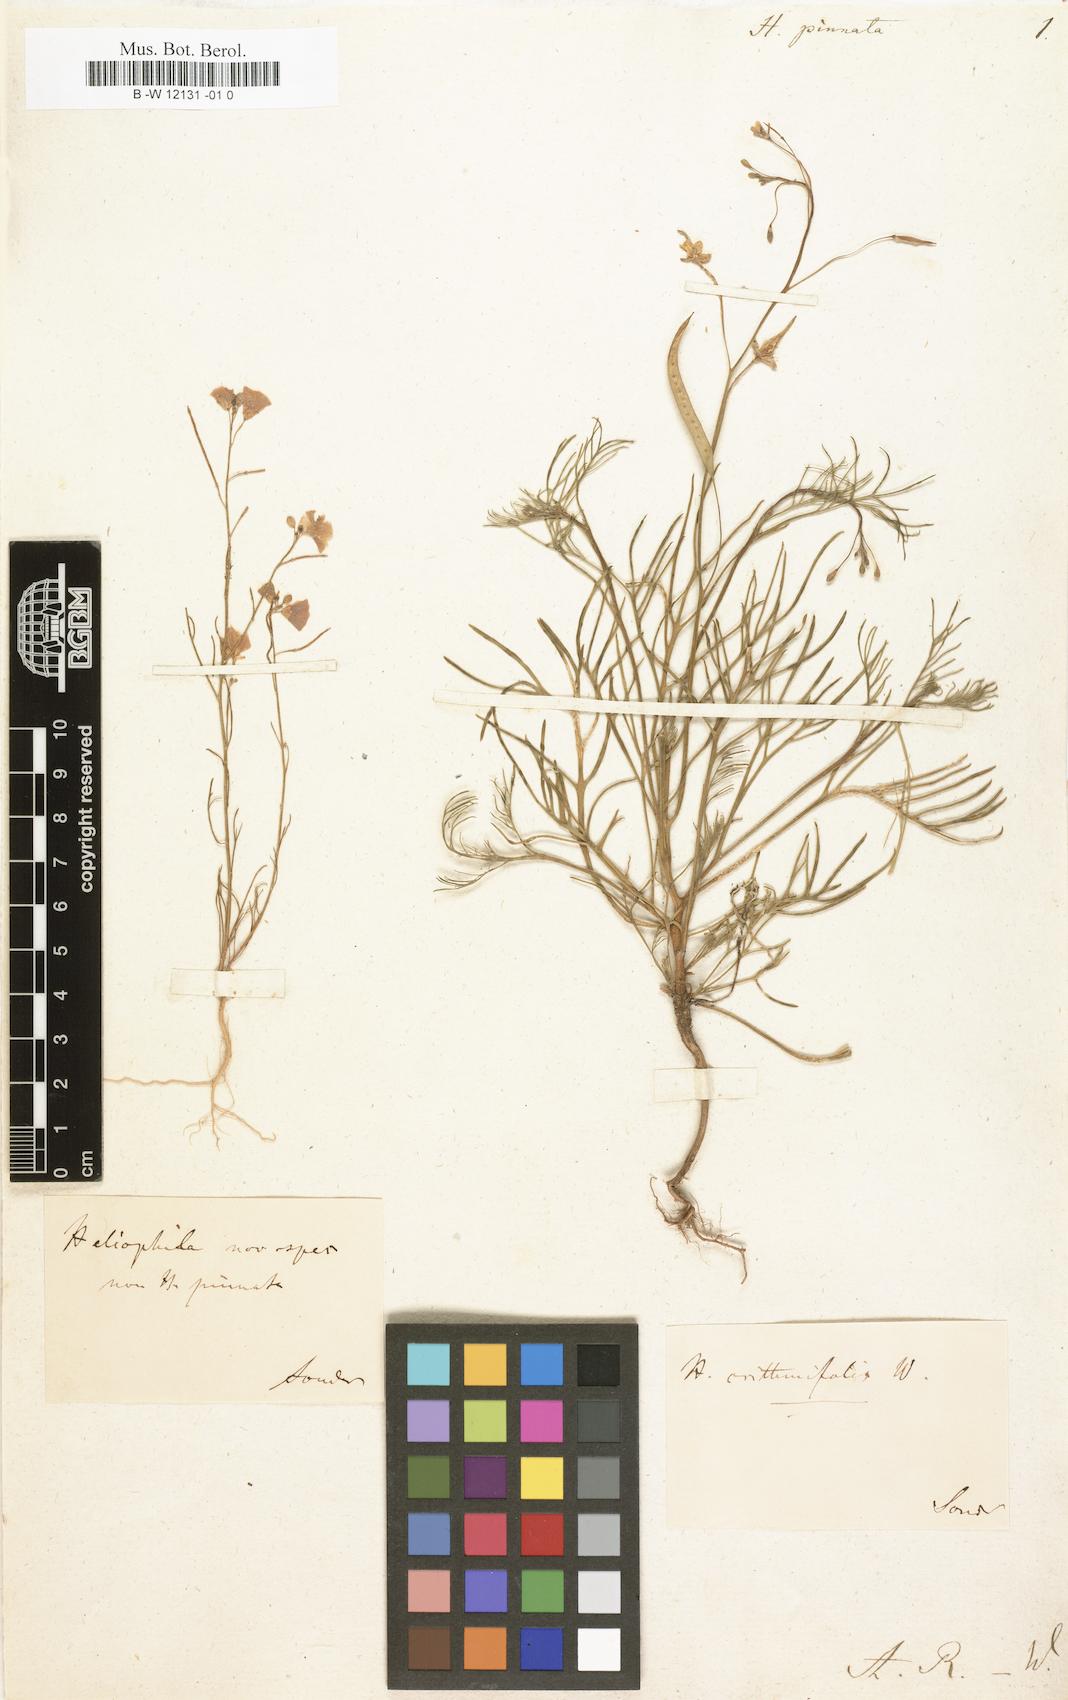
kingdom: Plantae
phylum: Tracheophyta
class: Magnoliopsida
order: Brassicales
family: Brassicaceae
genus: Heliophila
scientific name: Heliophila pinnata
